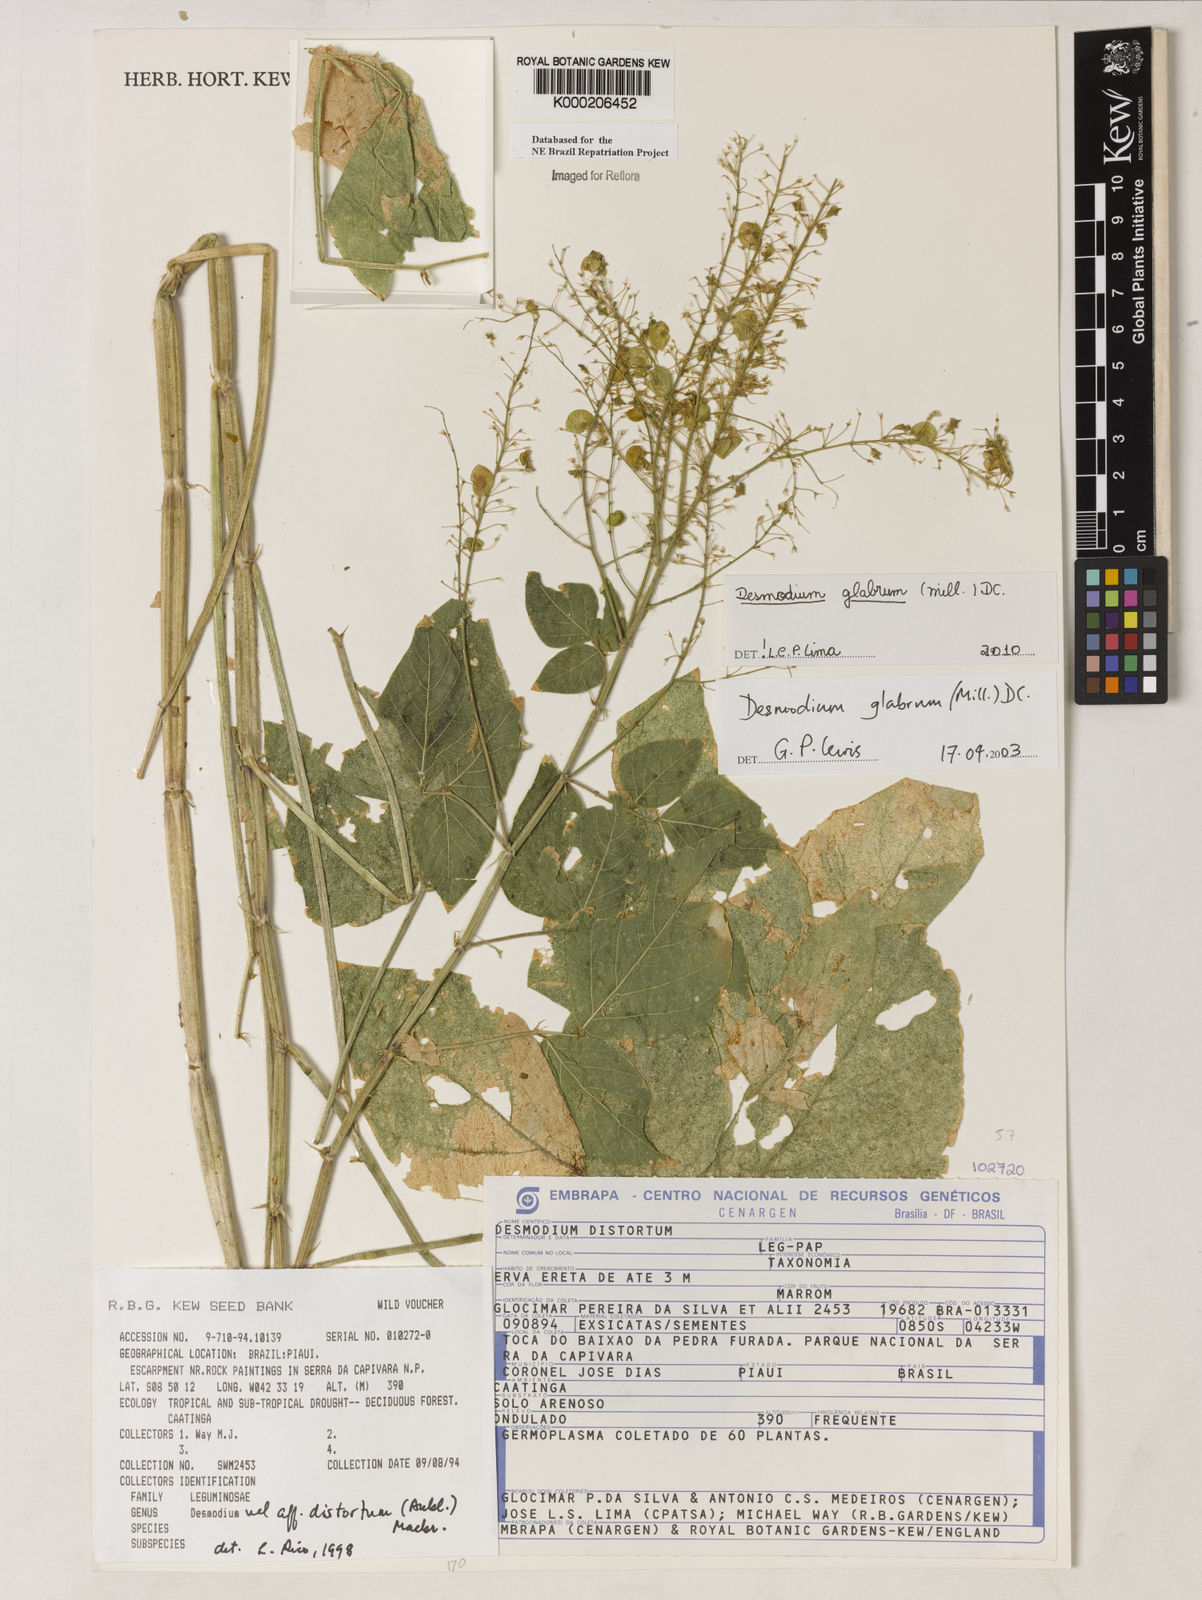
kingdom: Plantae
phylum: Tracheophyta
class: Magnoliopsida
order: Fabales
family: Fabaceae
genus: Desmodium
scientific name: Desmodium glabrum
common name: Zarzabacoa dulce
